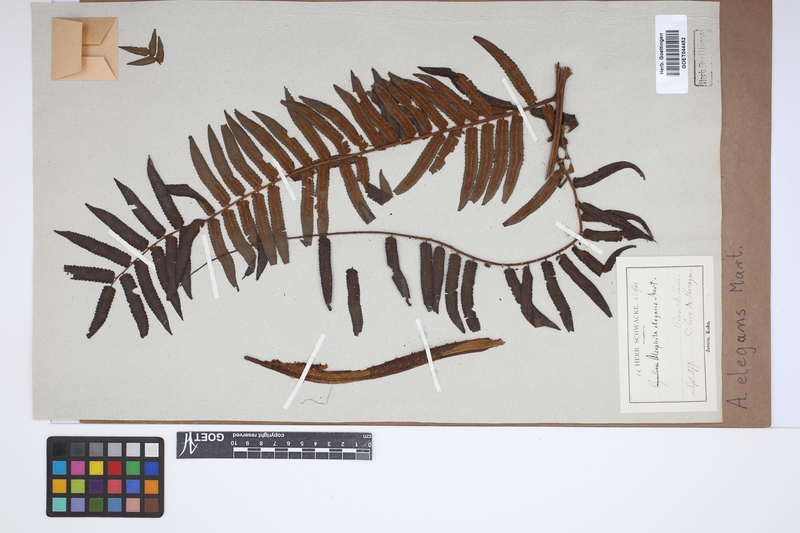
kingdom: Plantae
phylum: Tracheophyta
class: Polypodiopsida
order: Cyatheales
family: Cyatheaceae
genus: Cyathea
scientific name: Cyathea corcovadensis
